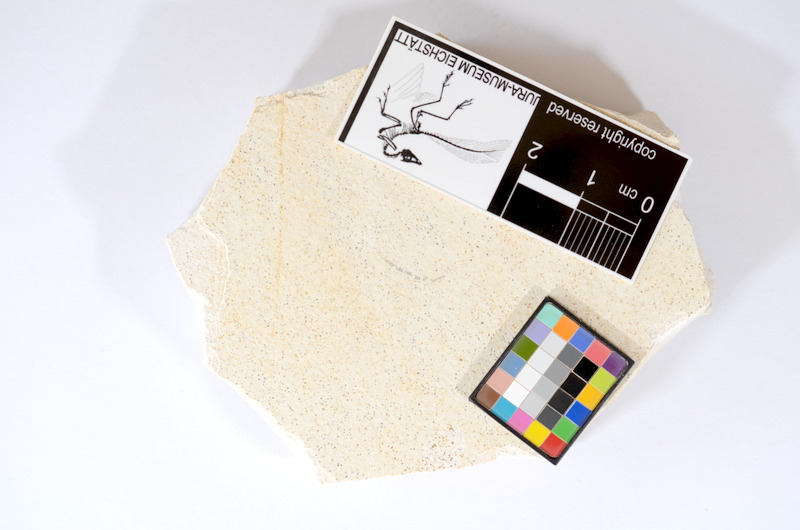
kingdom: Animalia
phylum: Chordata
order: Salmoniformes
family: Orthogonikleithridae
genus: Orthogonikleithrus
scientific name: Orthogonikleithrus hoelli
